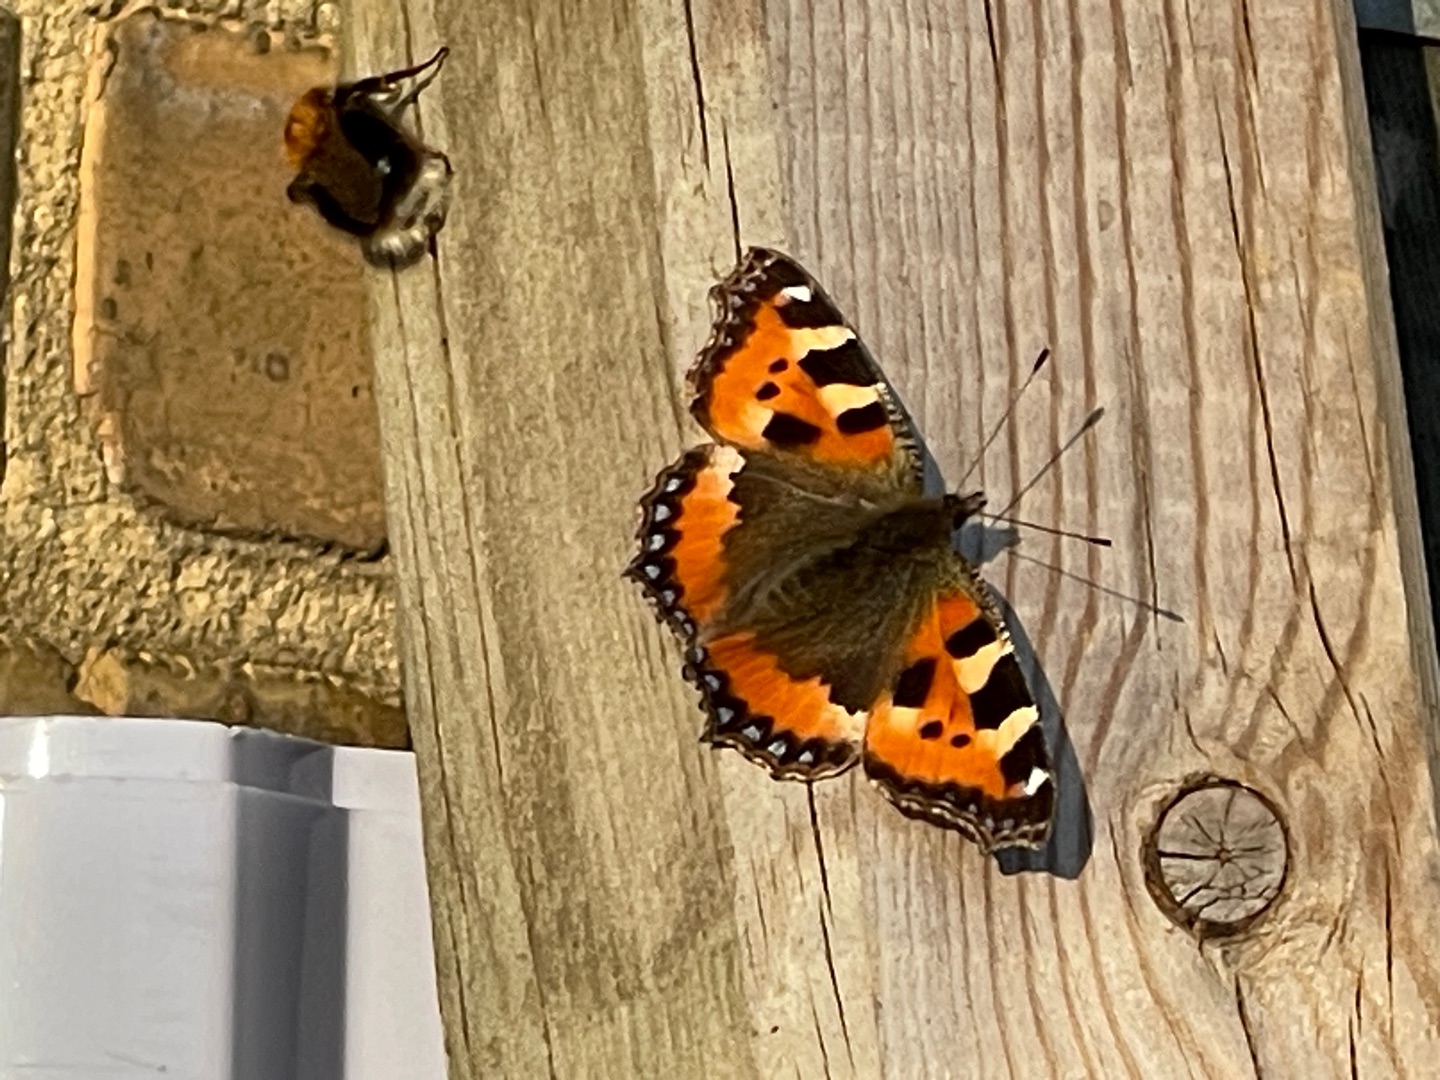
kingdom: Animalia
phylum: Arthropoda
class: Insecta
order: Lepidoptera
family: Nymphalidae
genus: Aglais
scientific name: Aglais urticae
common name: Nældens takvinge
